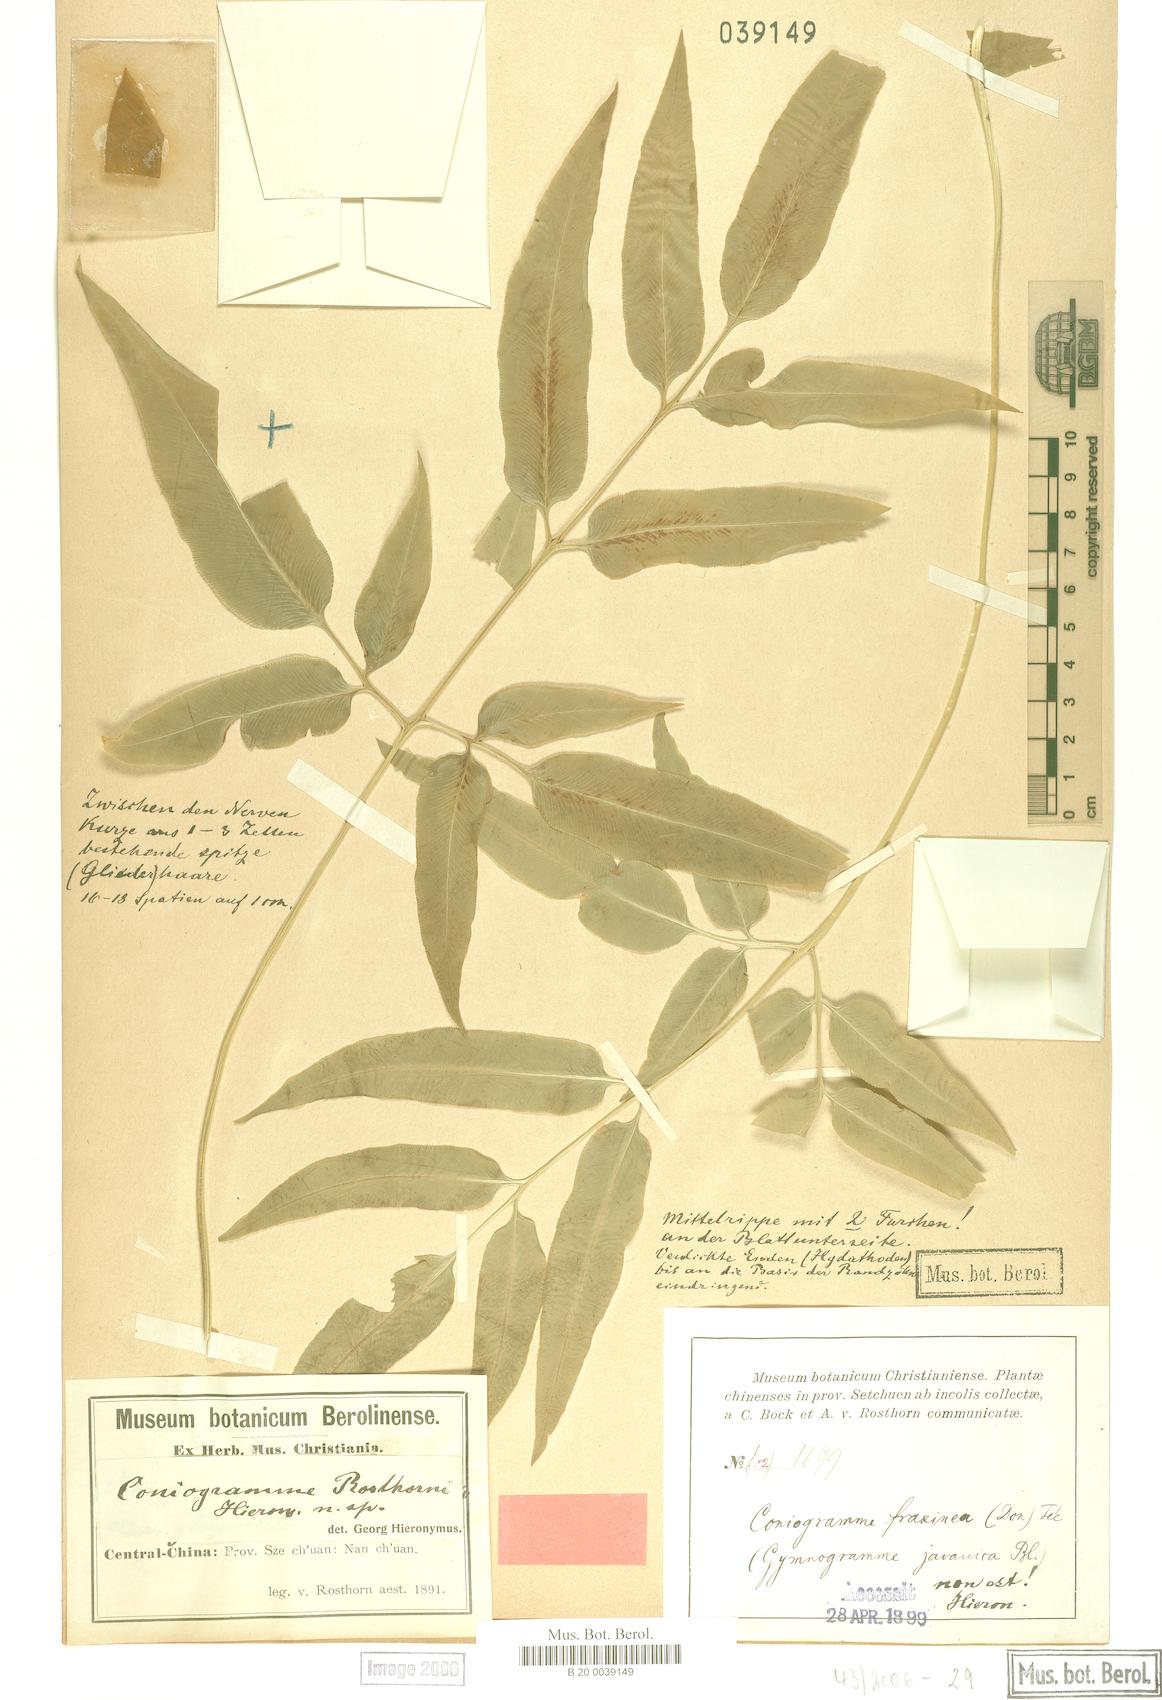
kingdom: Plantae
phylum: Tracheophyta
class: Polypodiopsida
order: Polypodiales
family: Pteridaceae
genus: Coniogramme
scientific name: Coniogramme rosthornii
